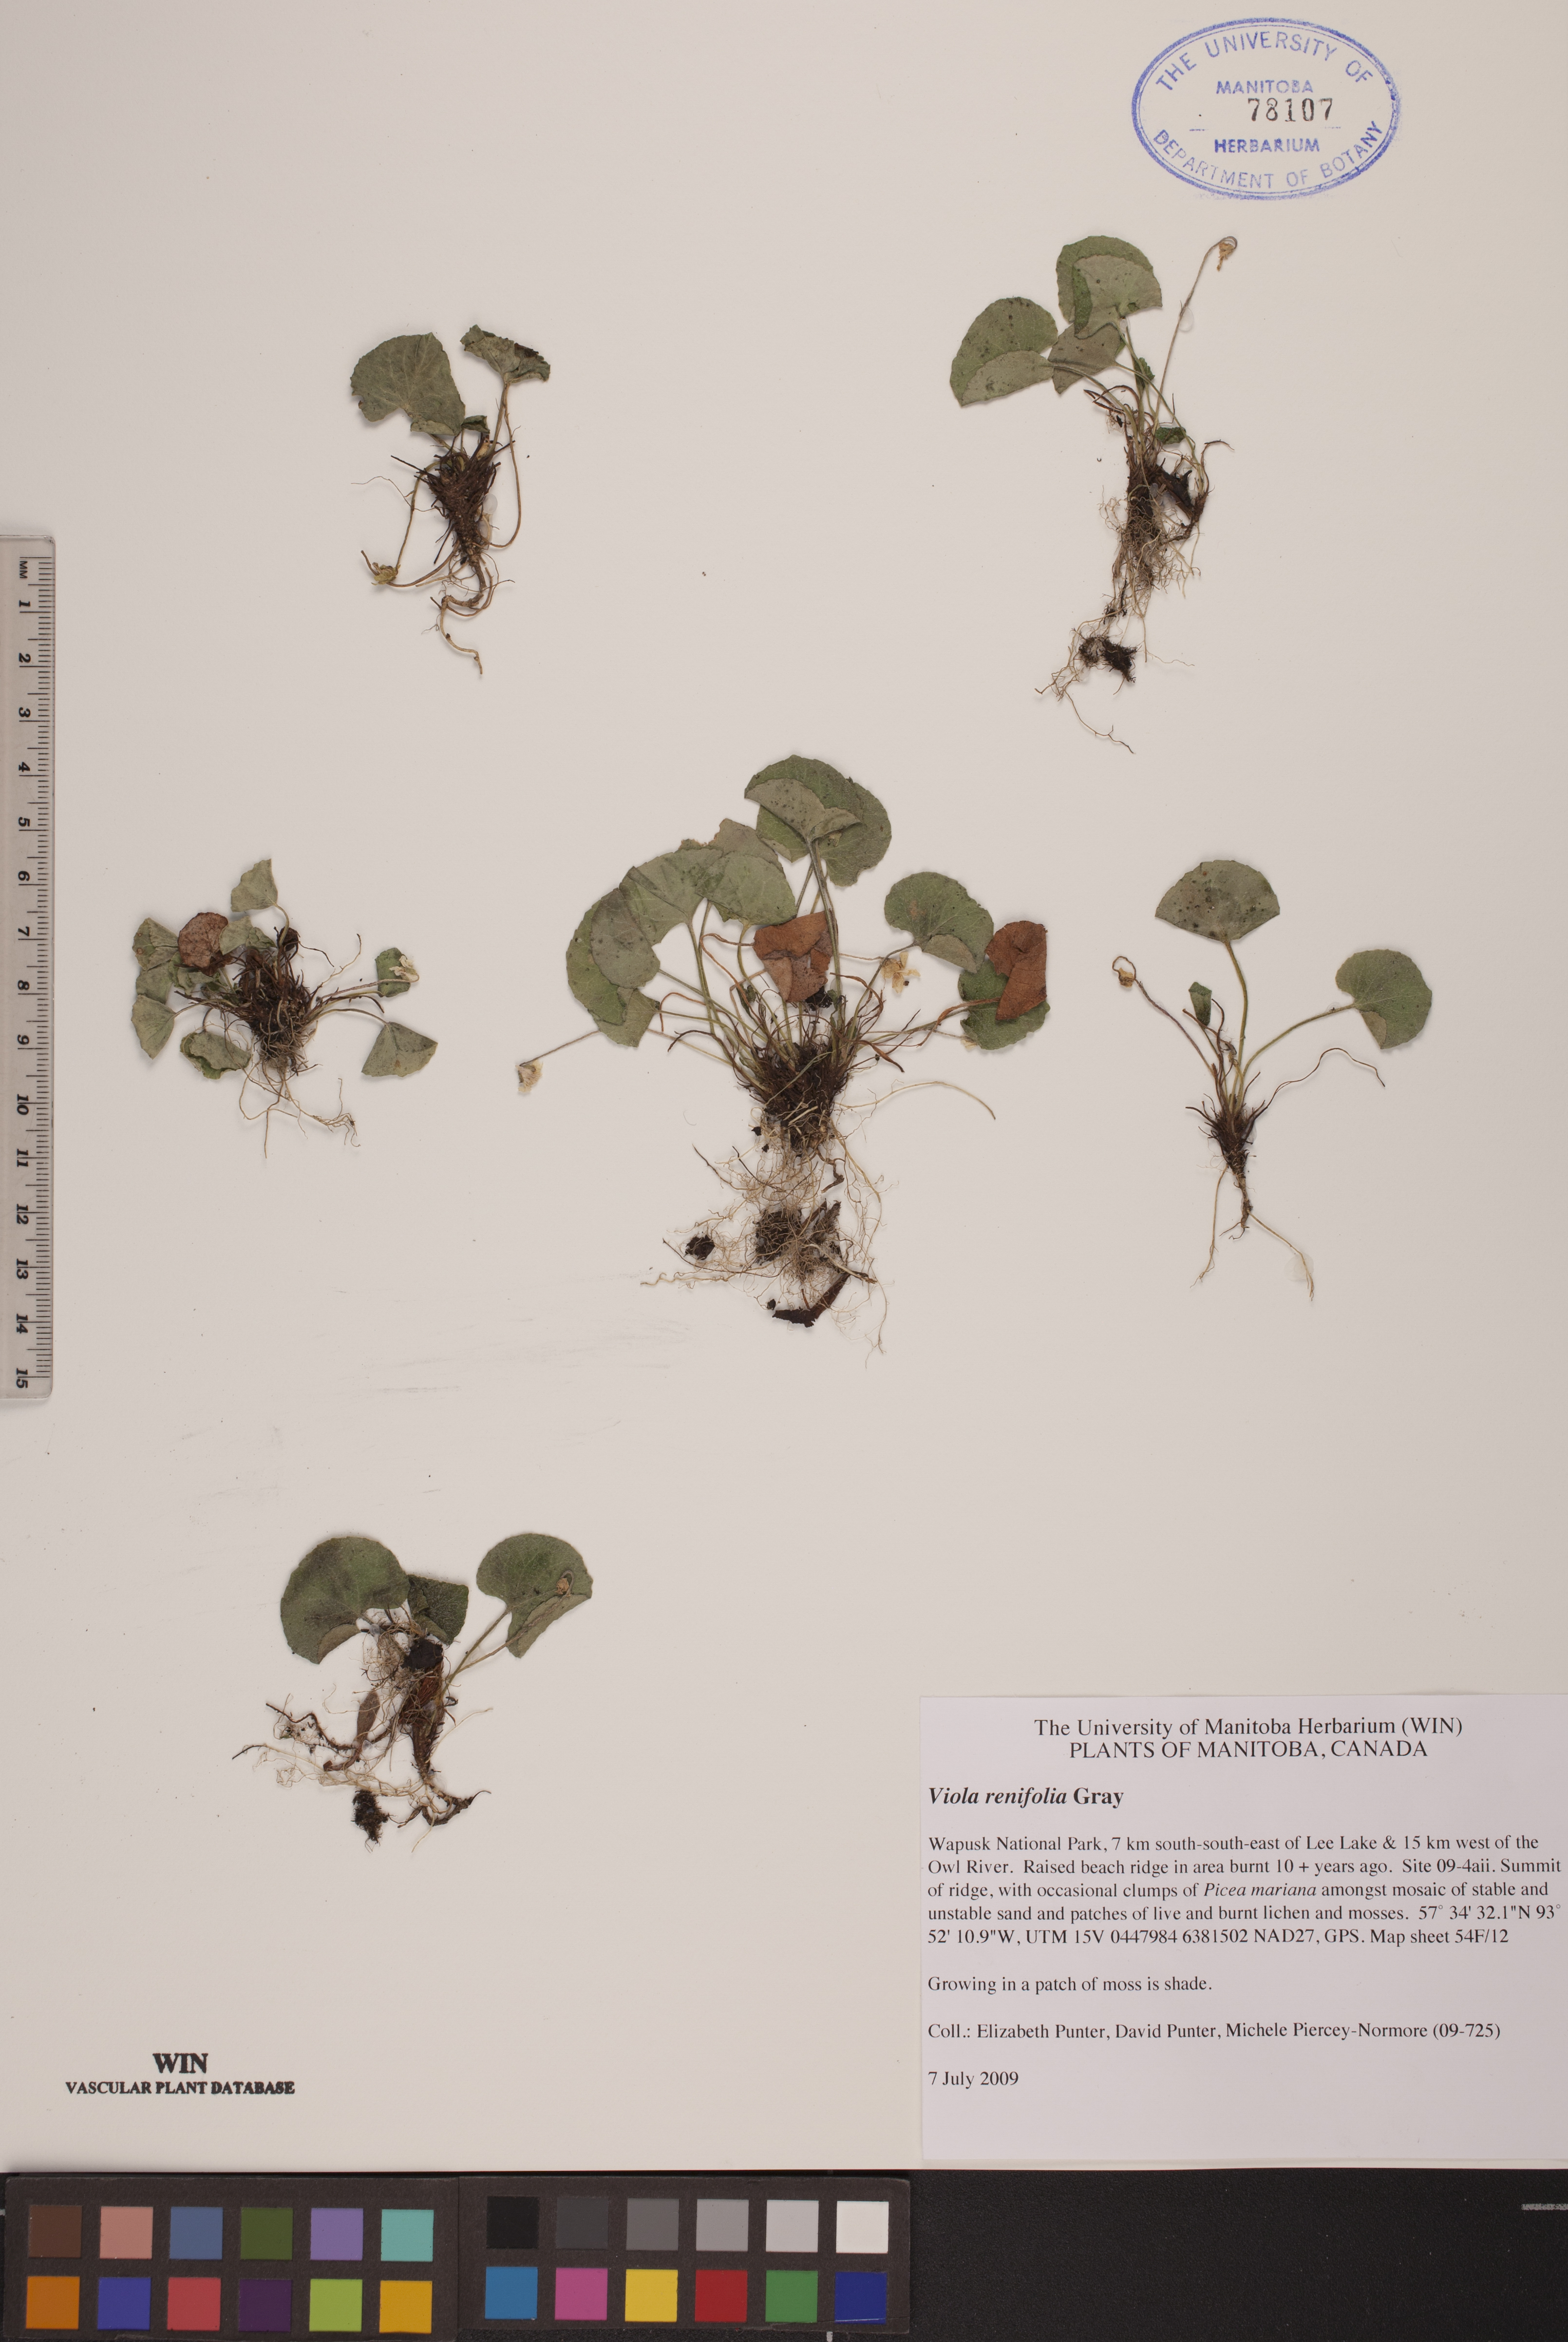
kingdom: Plantae
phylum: Tracheophyta
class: Magnoliopsida
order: Malpighiales
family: Violaceae
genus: Viola
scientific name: Viola renifolia
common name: Kidney-leaf violet
